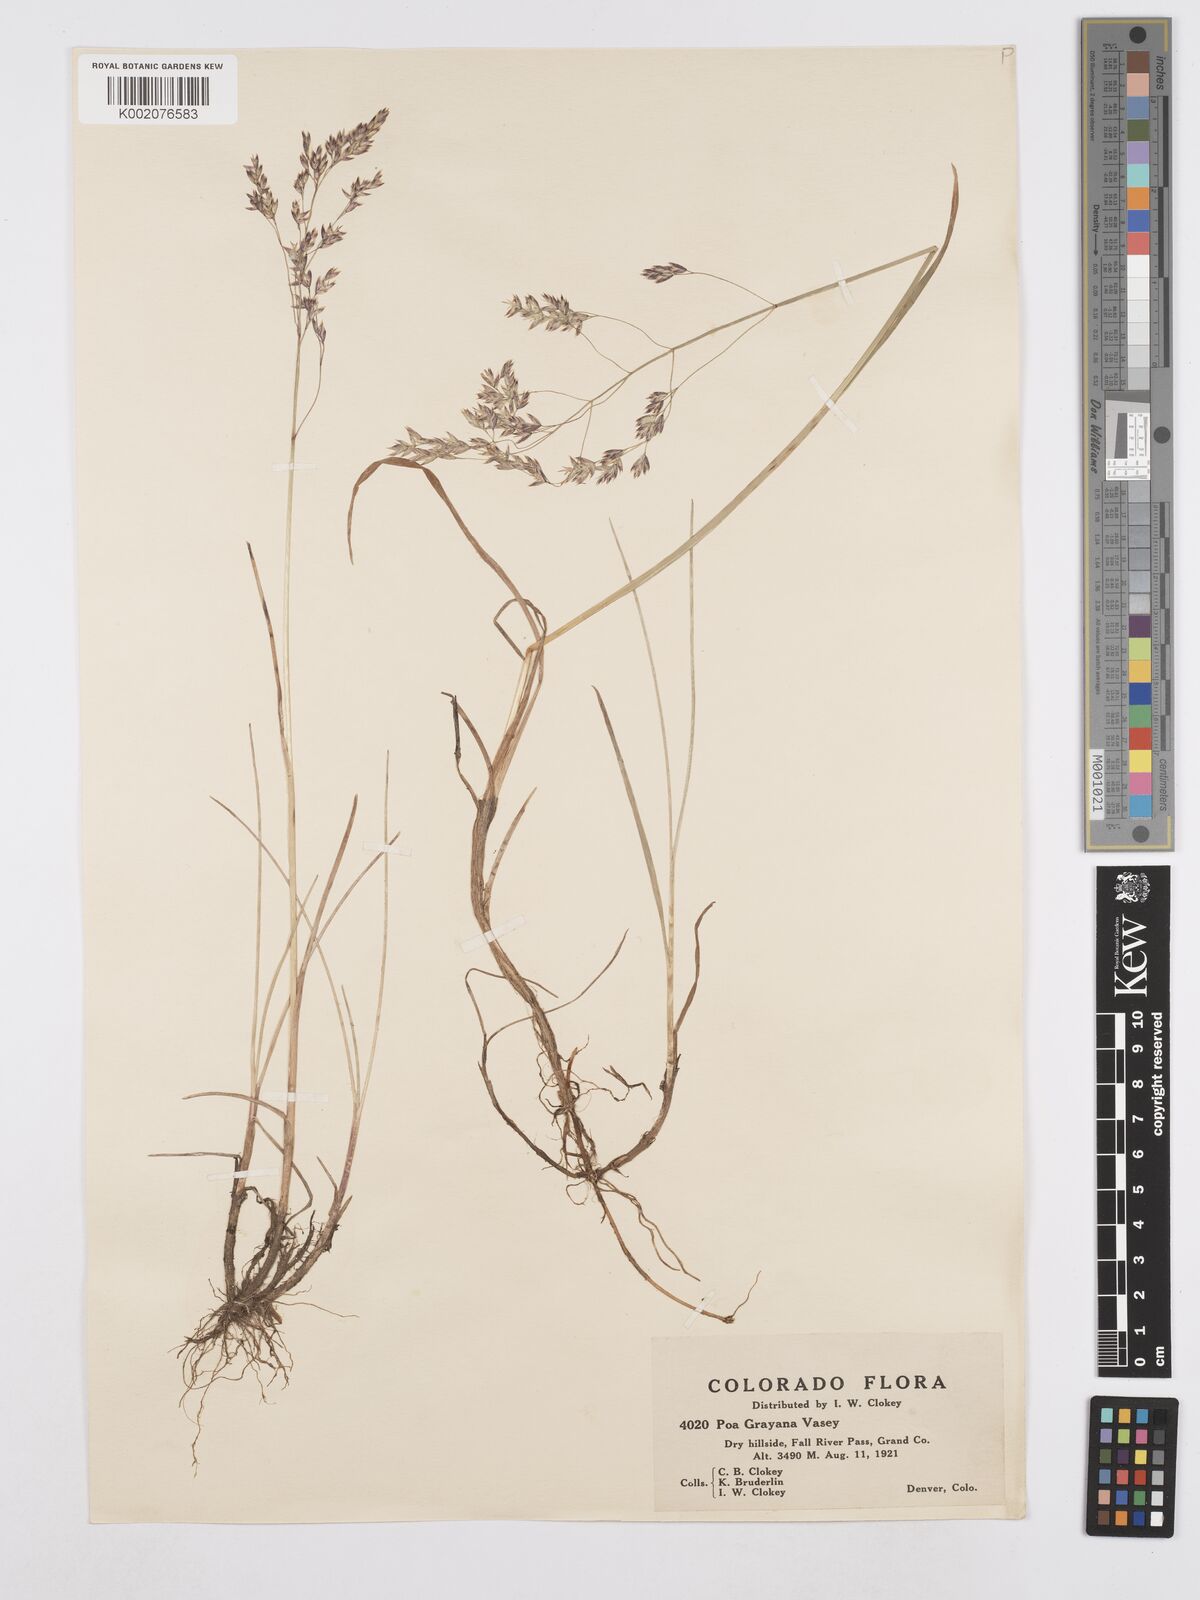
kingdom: Plantae
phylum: Tracheophyta
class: Liliopsida
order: Poales
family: Poaceae
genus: Poa
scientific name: Poa arctica
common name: Arctic bluegrass
